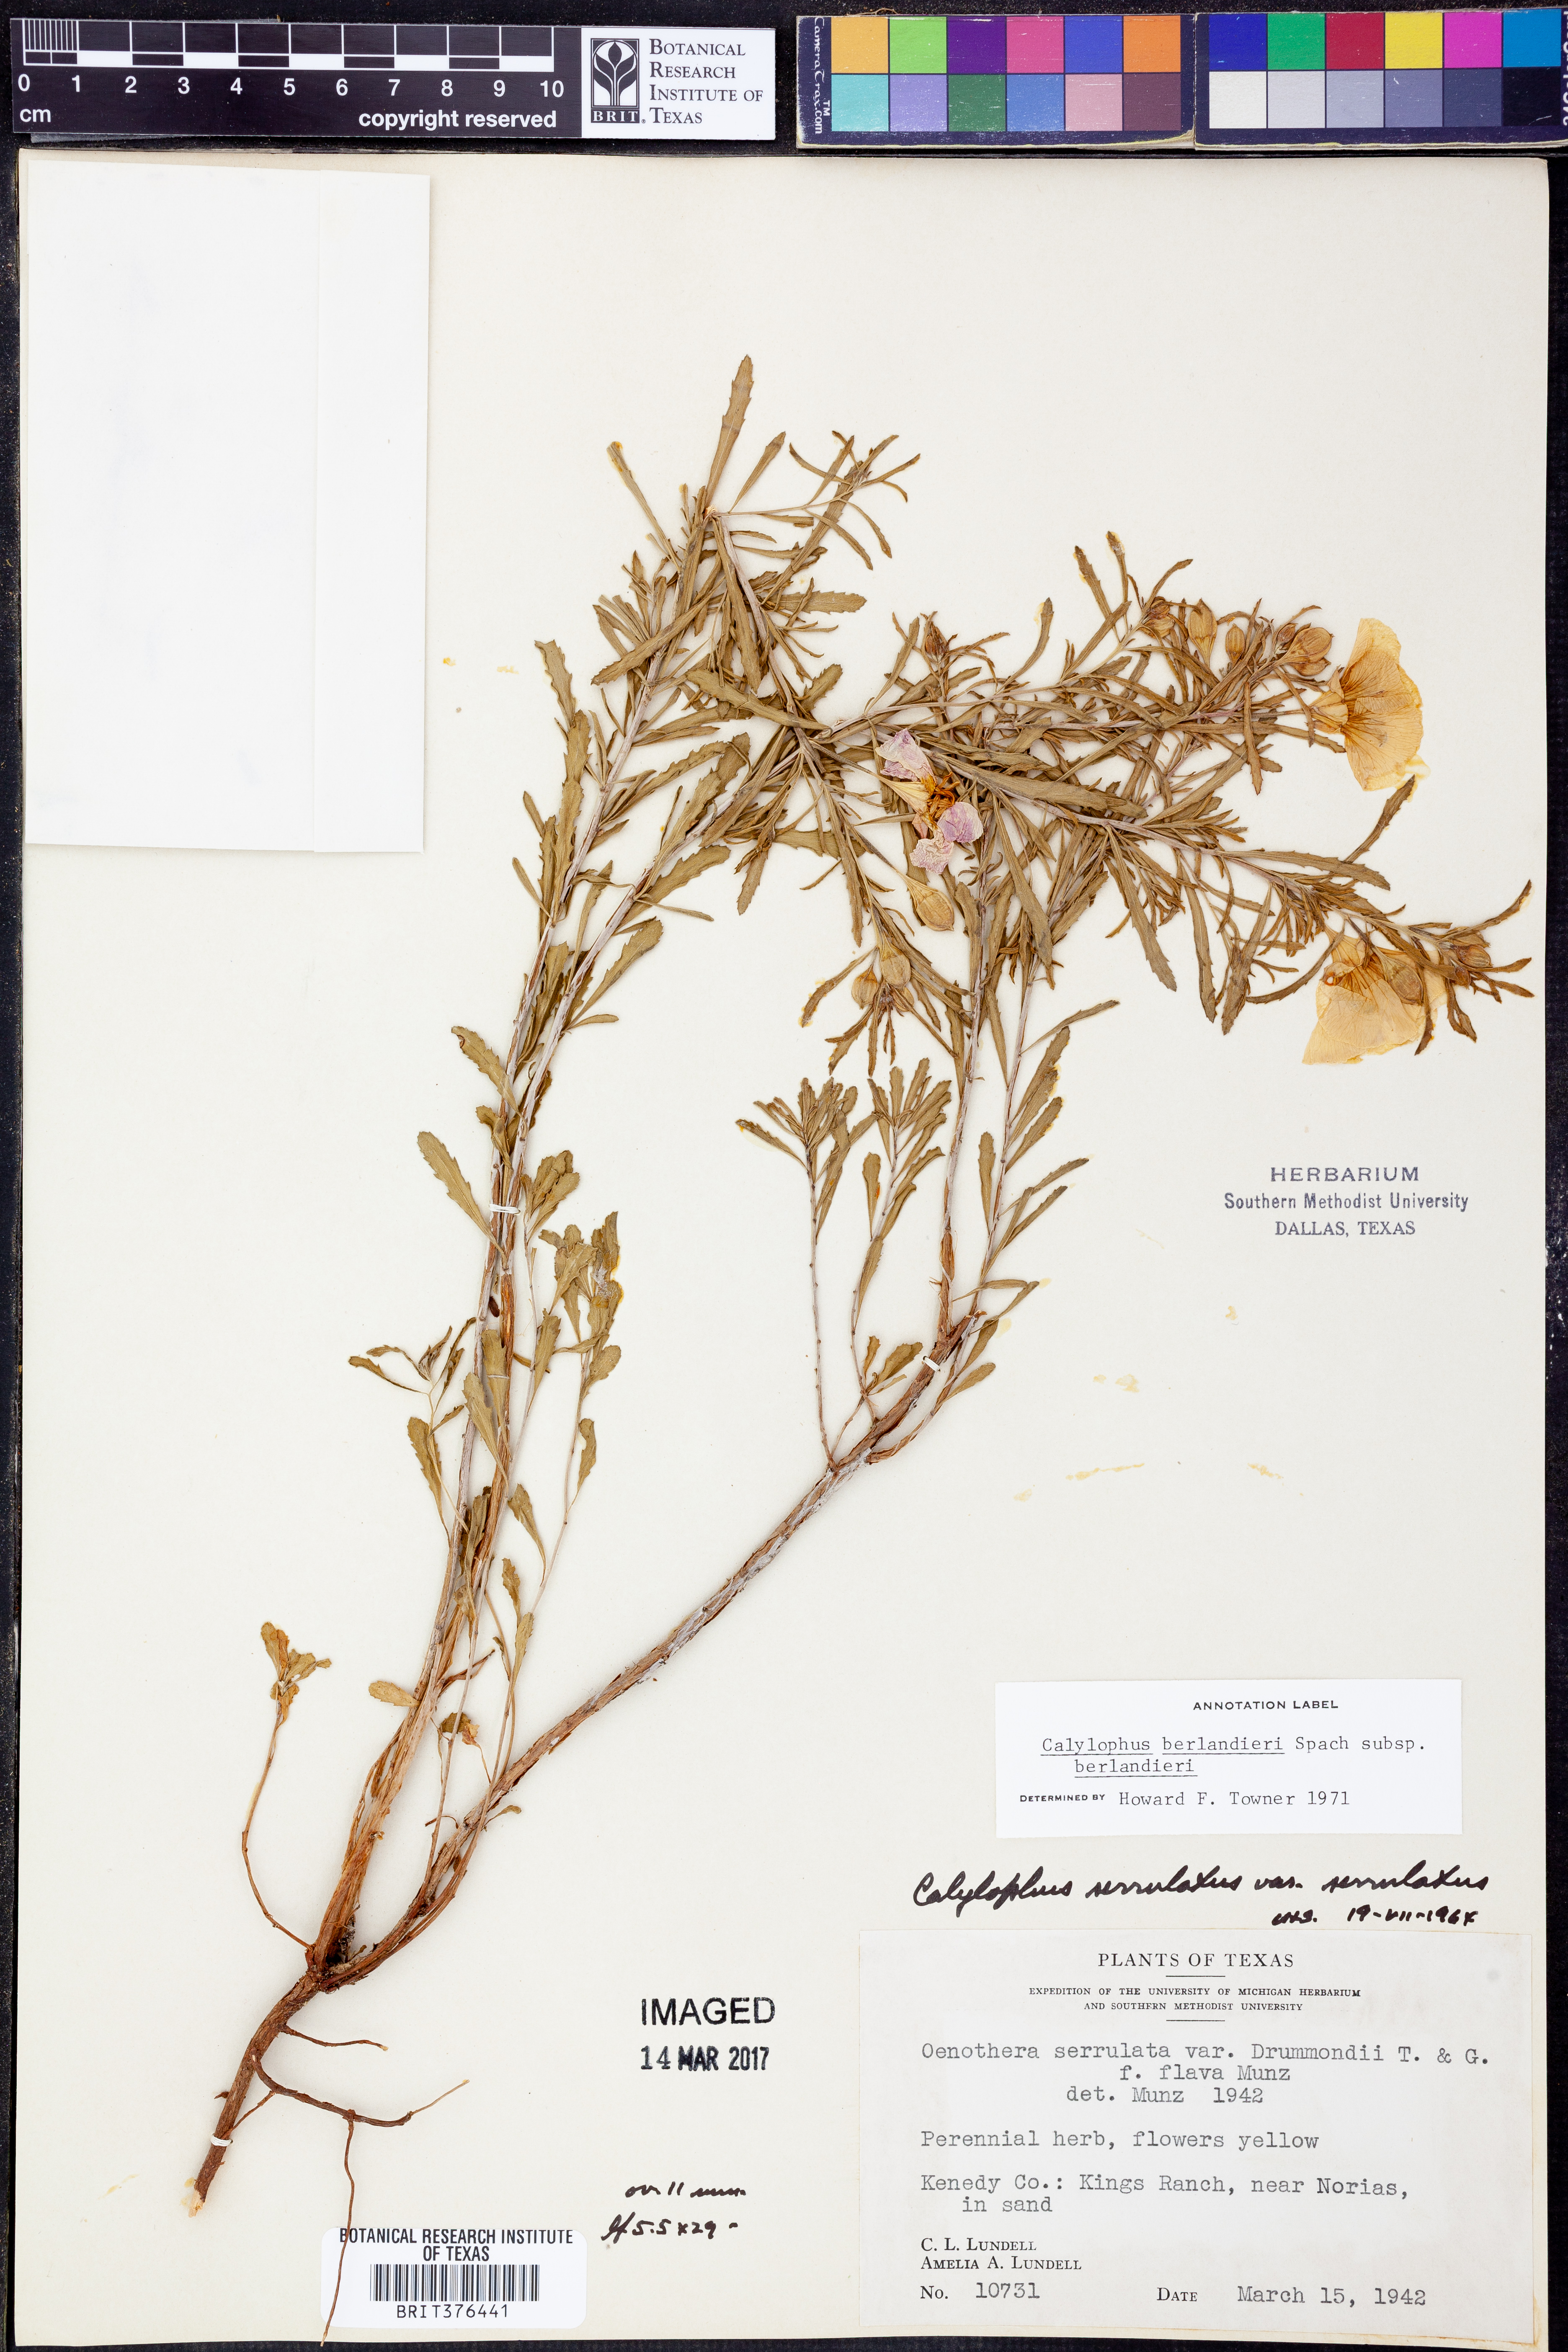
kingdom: Plantae
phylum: Tracheophyta
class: Magnoliopsida
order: Myrtales
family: Onagraceae
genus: Oenothera
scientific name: Oenothera capillifolia
